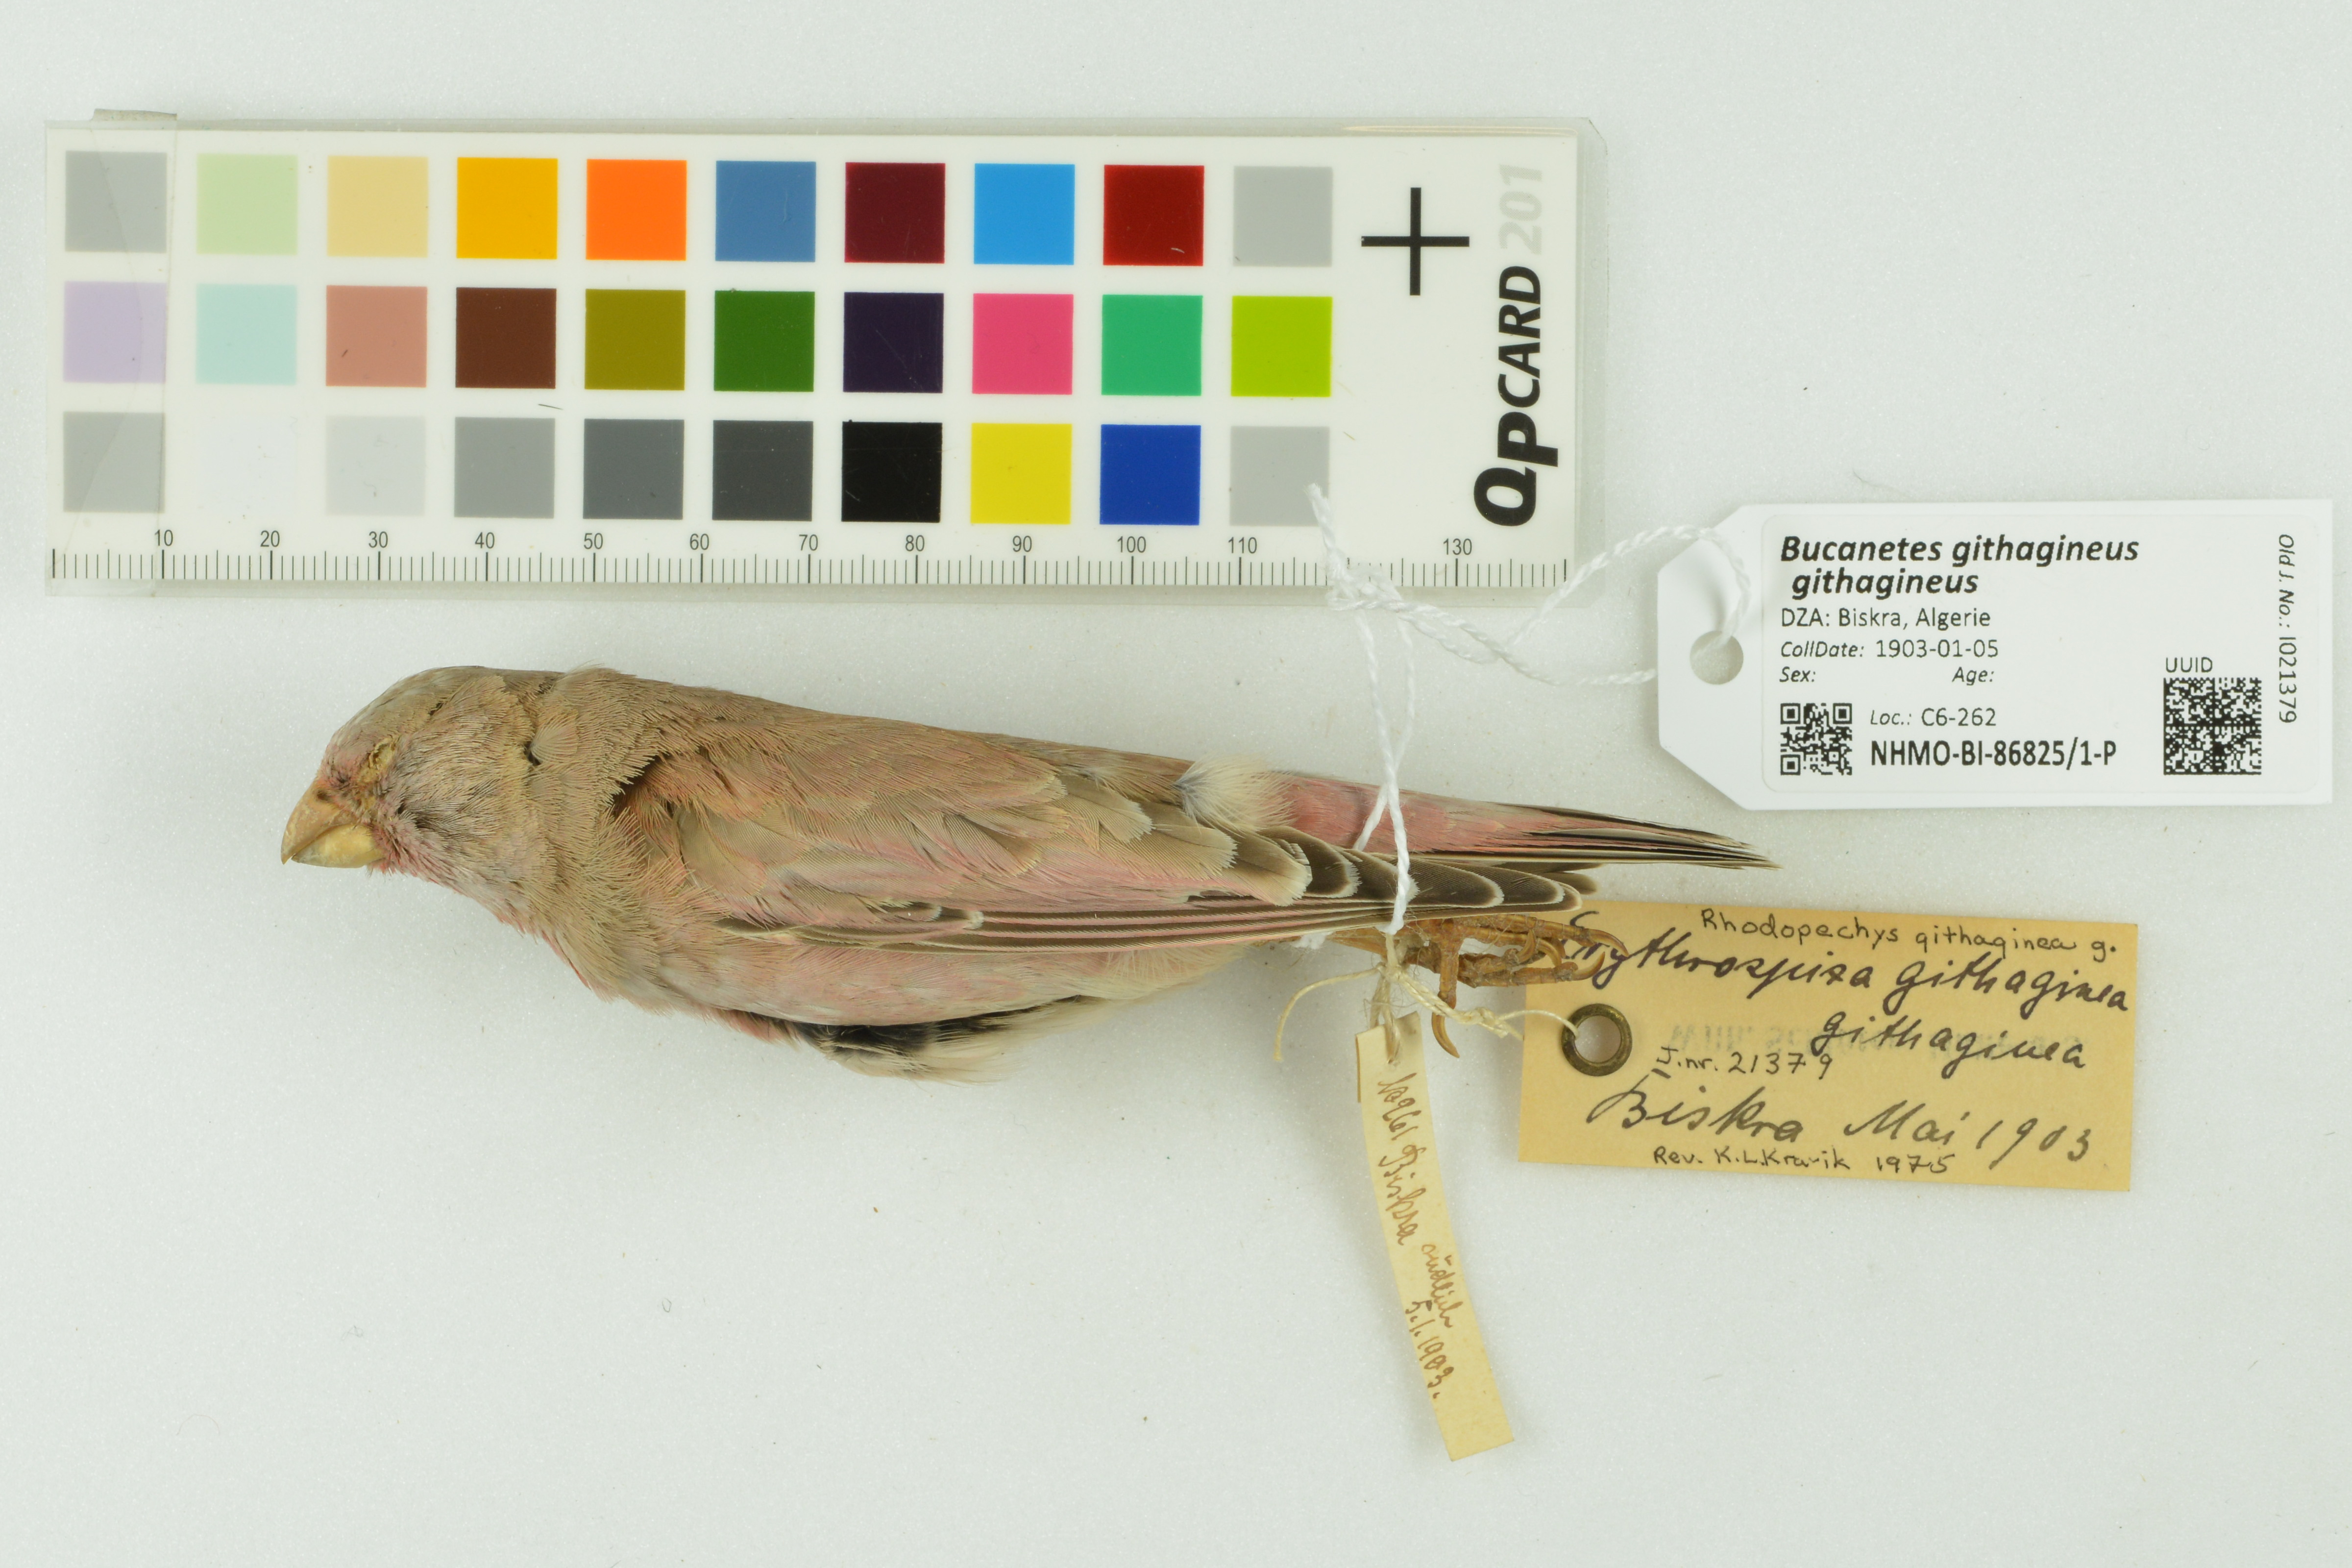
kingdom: Animalia
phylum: Chordata
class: Aves
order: Passeriformes
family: Fringillidae
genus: Bucanetes
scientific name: Bucanetes githagineus
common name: Trumpeter finch
